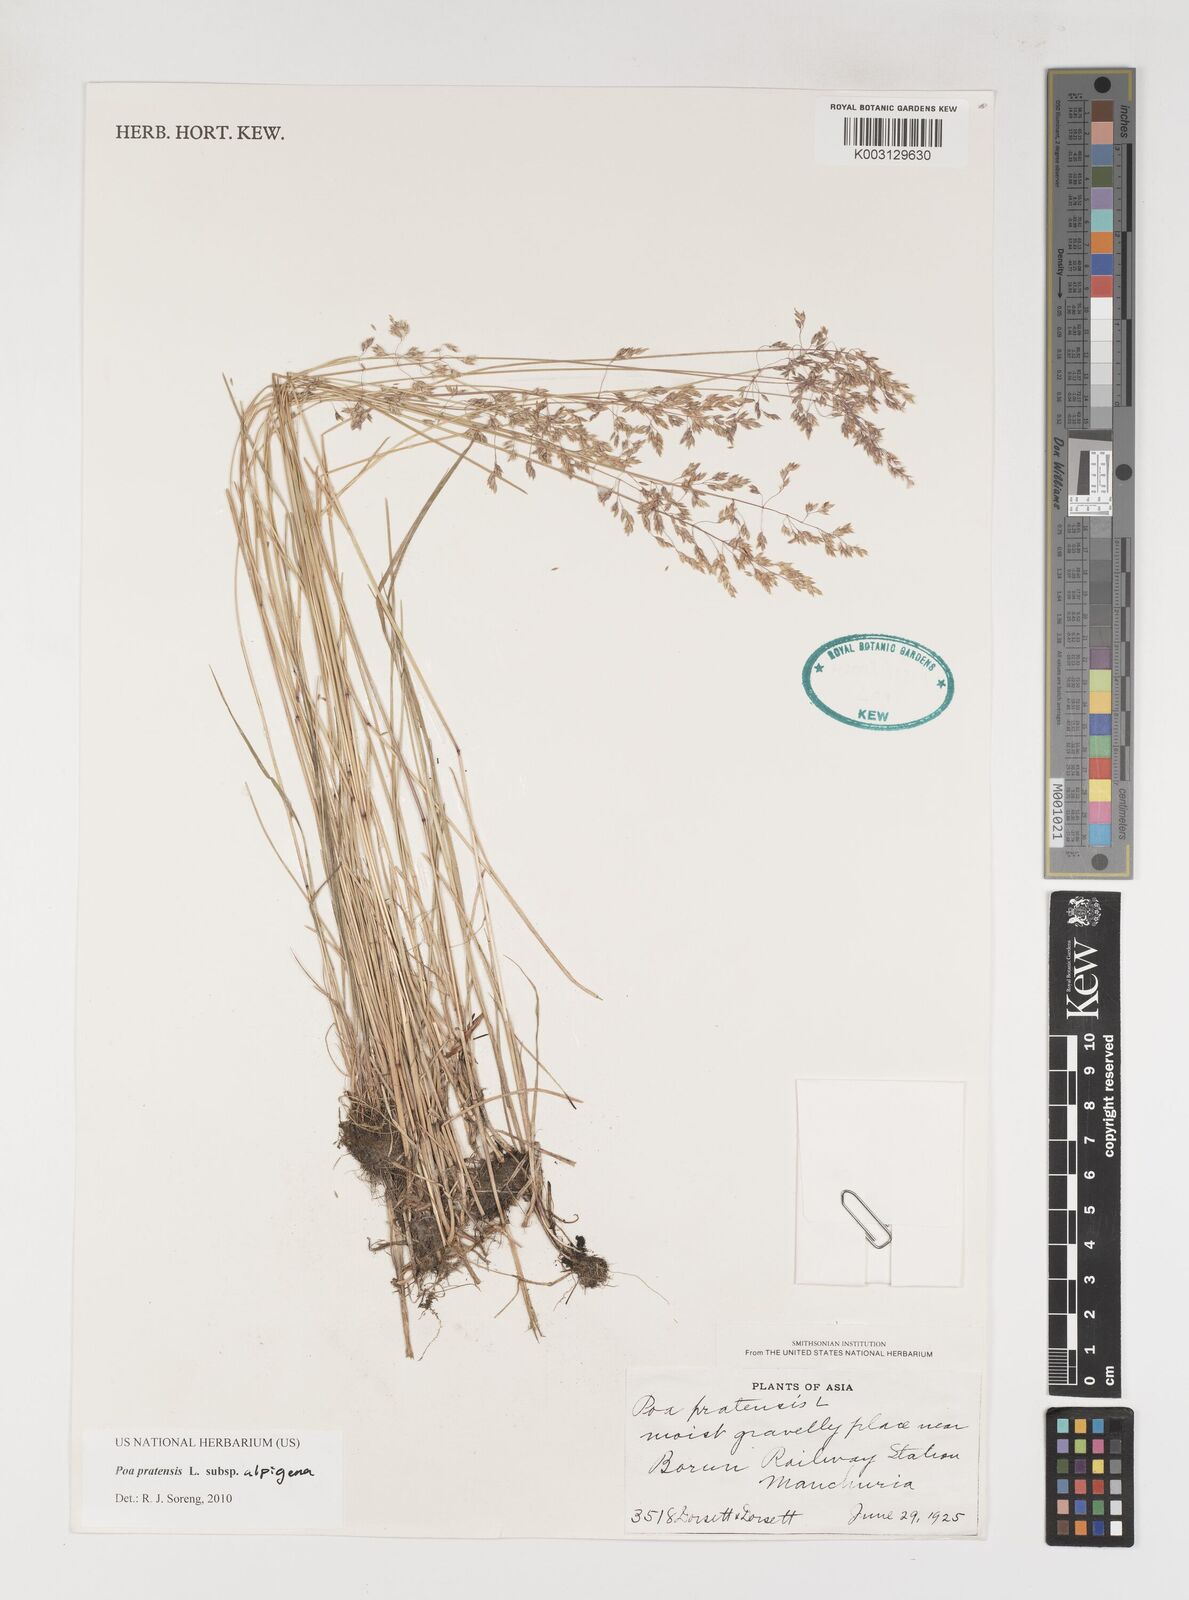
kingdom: Plantae
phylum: Tracheophyta
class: Liliopsida
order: Poales
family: Poaceae
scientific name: Poaceae
